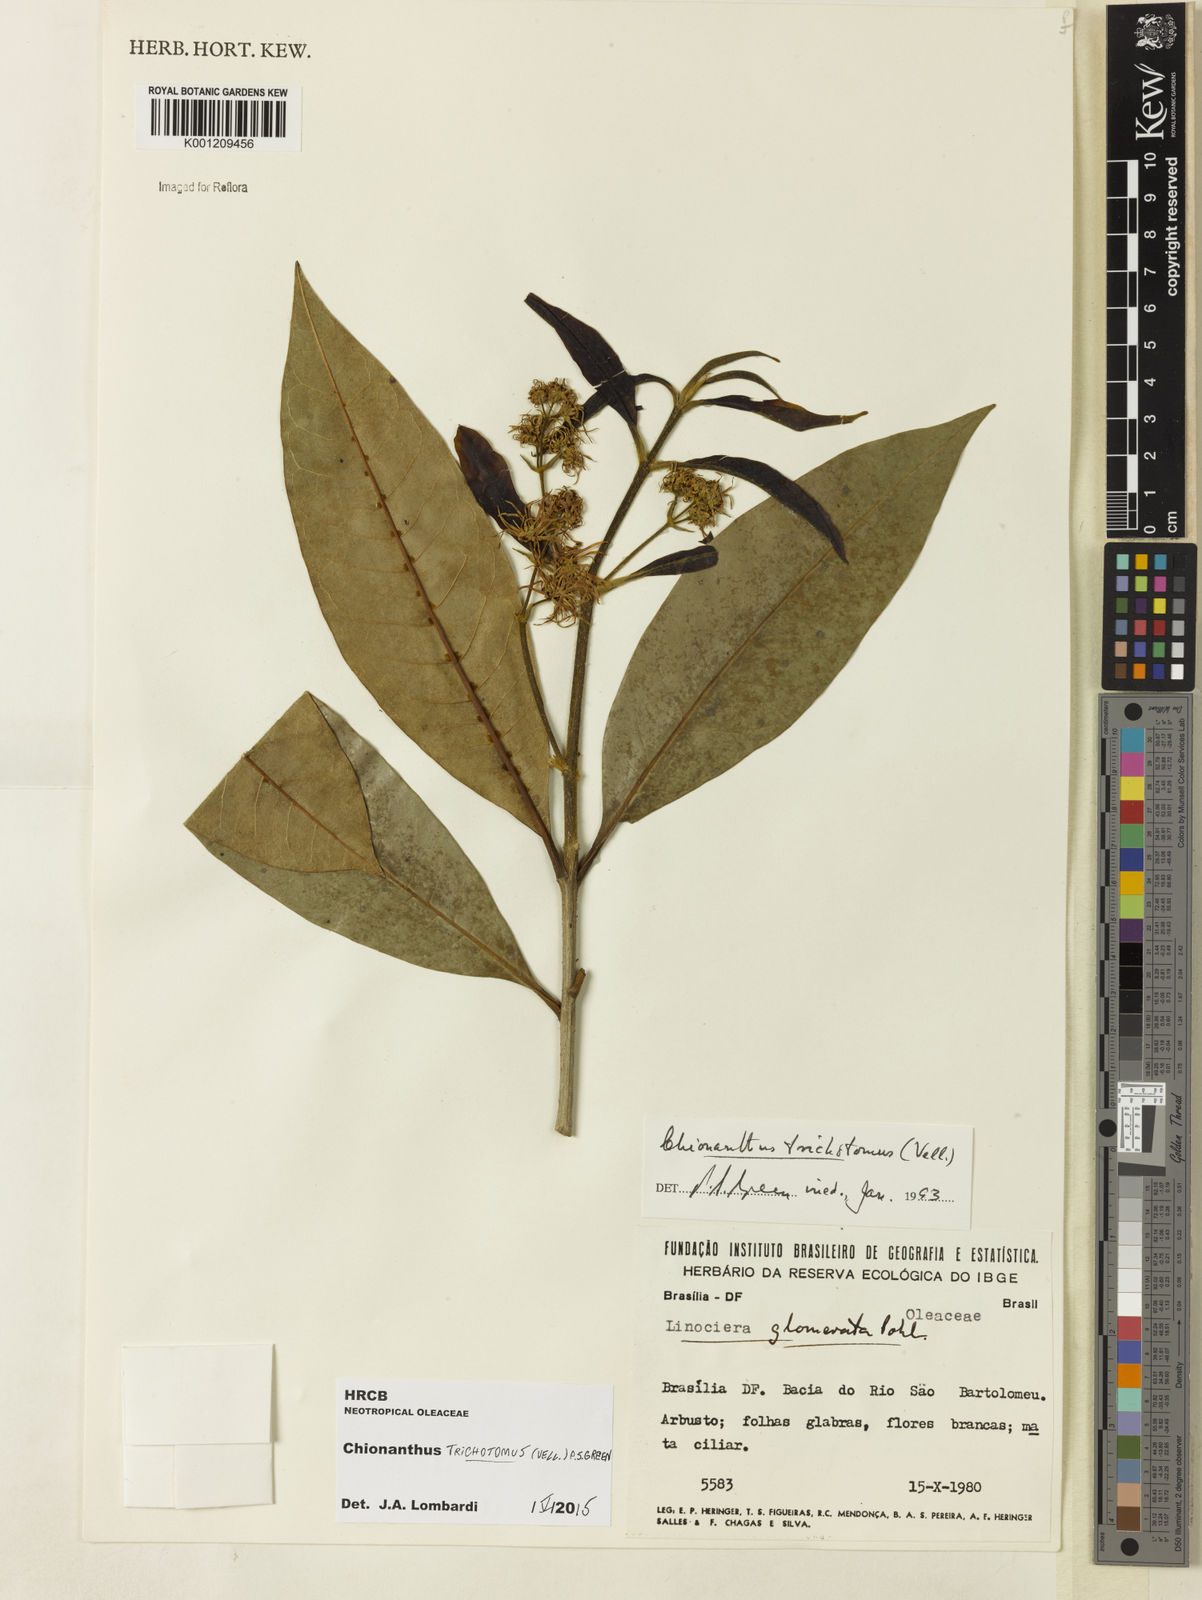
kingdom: Plantae
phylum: Tracheophyta
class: Magnoliopsida
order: Lamiales
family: Oleaceae
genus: Chionanthus
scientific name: Chionanthus trichotomus
